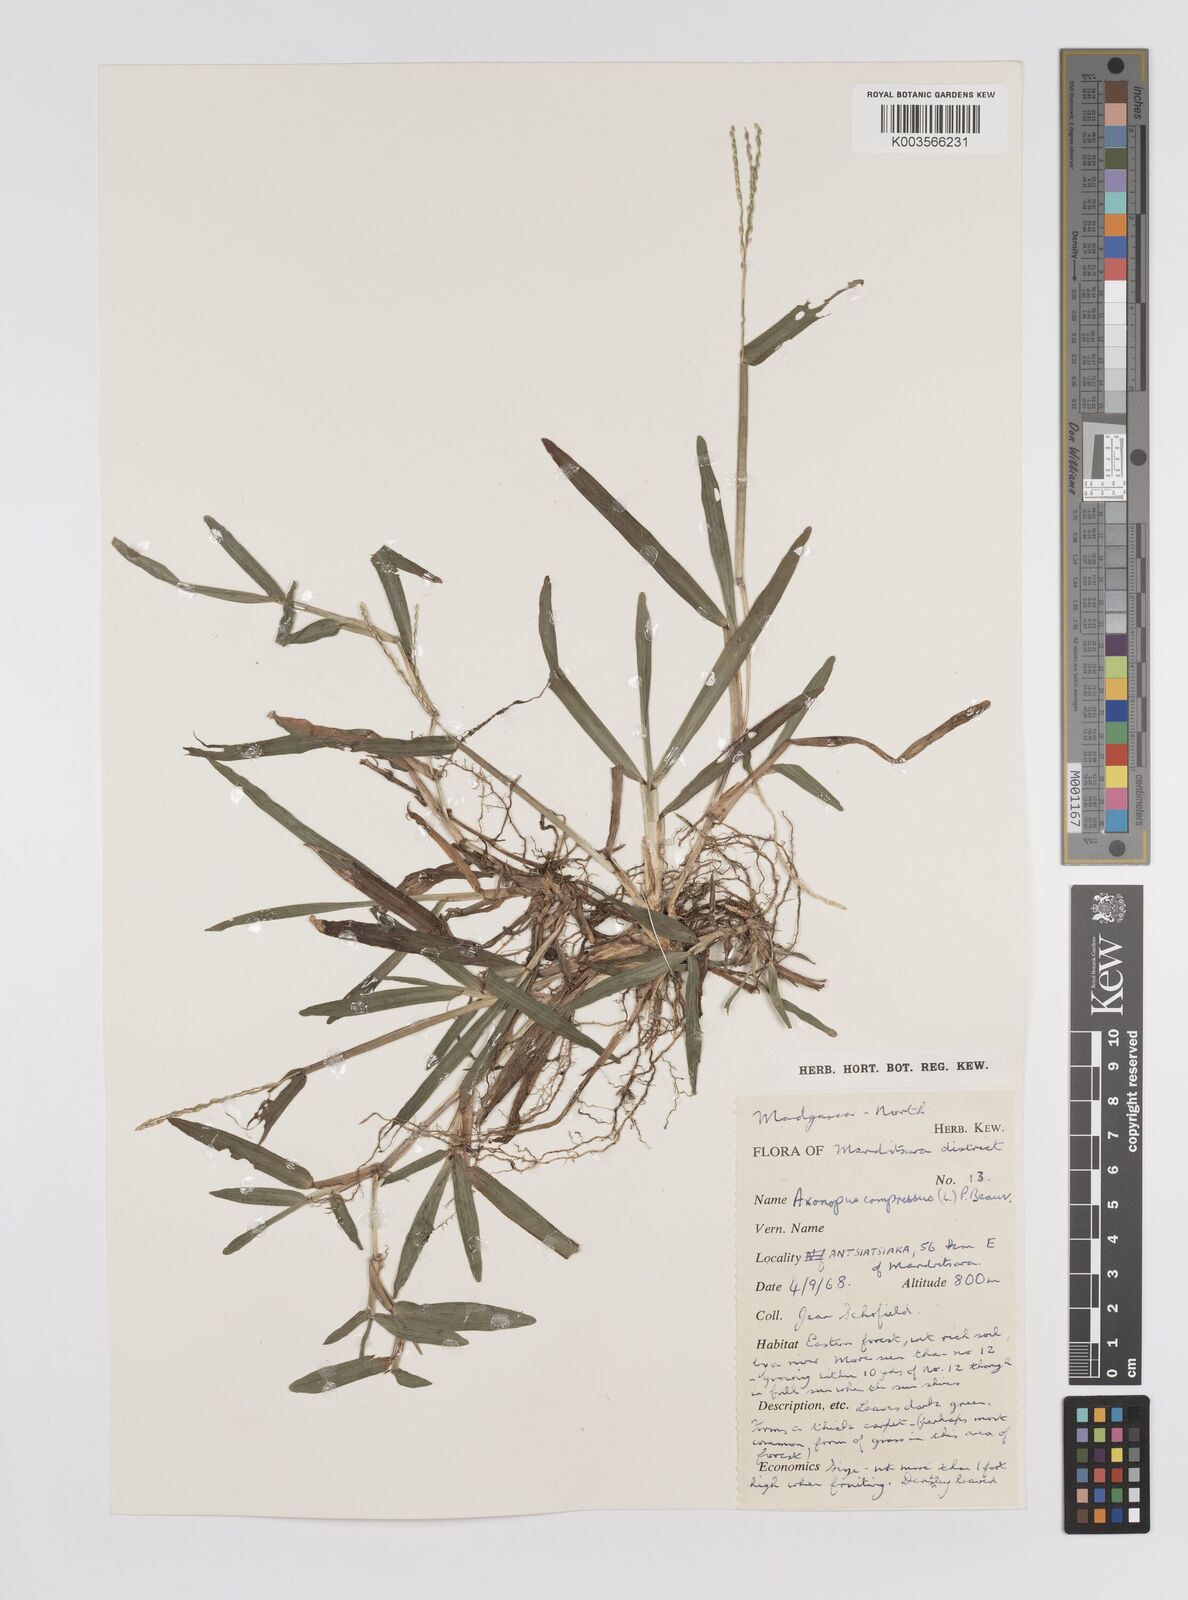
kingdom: Plantae
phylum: Tracheophyta
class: Liliopsida
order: Poales
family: Poaceae
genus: Axonopus
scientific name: Axonopus compressus
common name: American carpet grass
